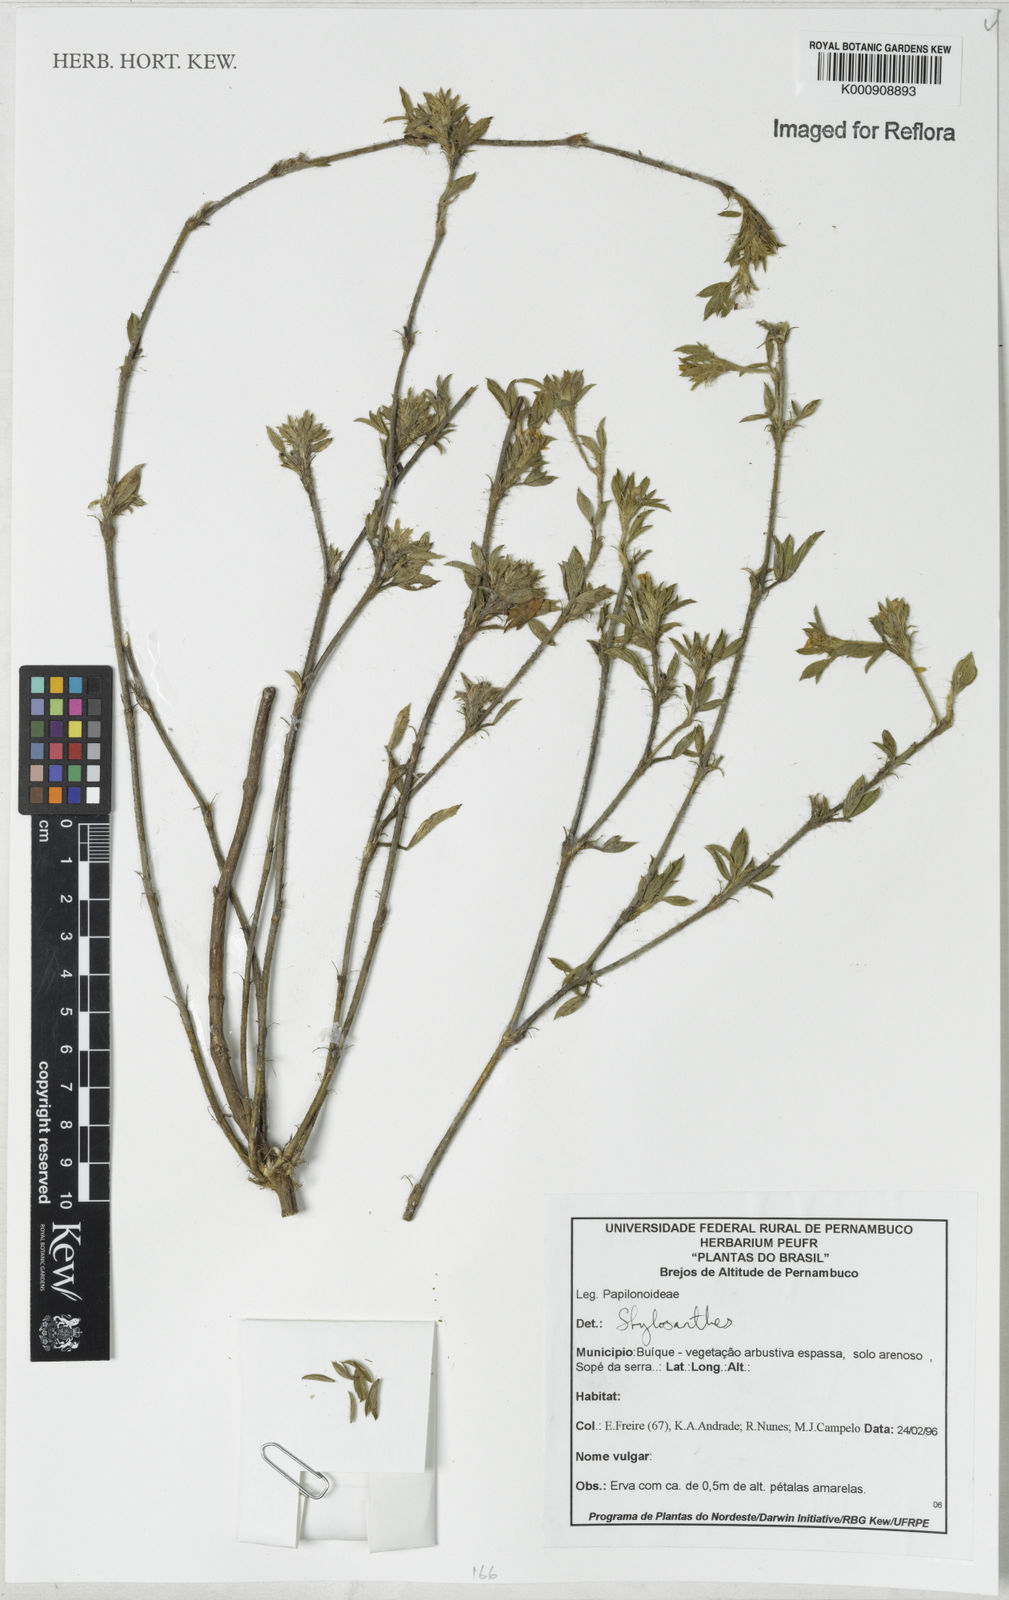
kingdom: Plantae
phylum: Tracheophyta
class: Magnoliopsida
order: Fabales
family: Fabaceae
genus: Stylosanthes
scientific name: Stylosanthes
